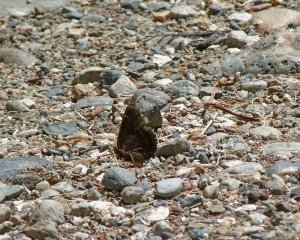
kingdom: Animalia
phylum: Arthropoda
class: Insecta
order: Lepidoptera
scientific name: Lepidoptera
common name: Butterflies
